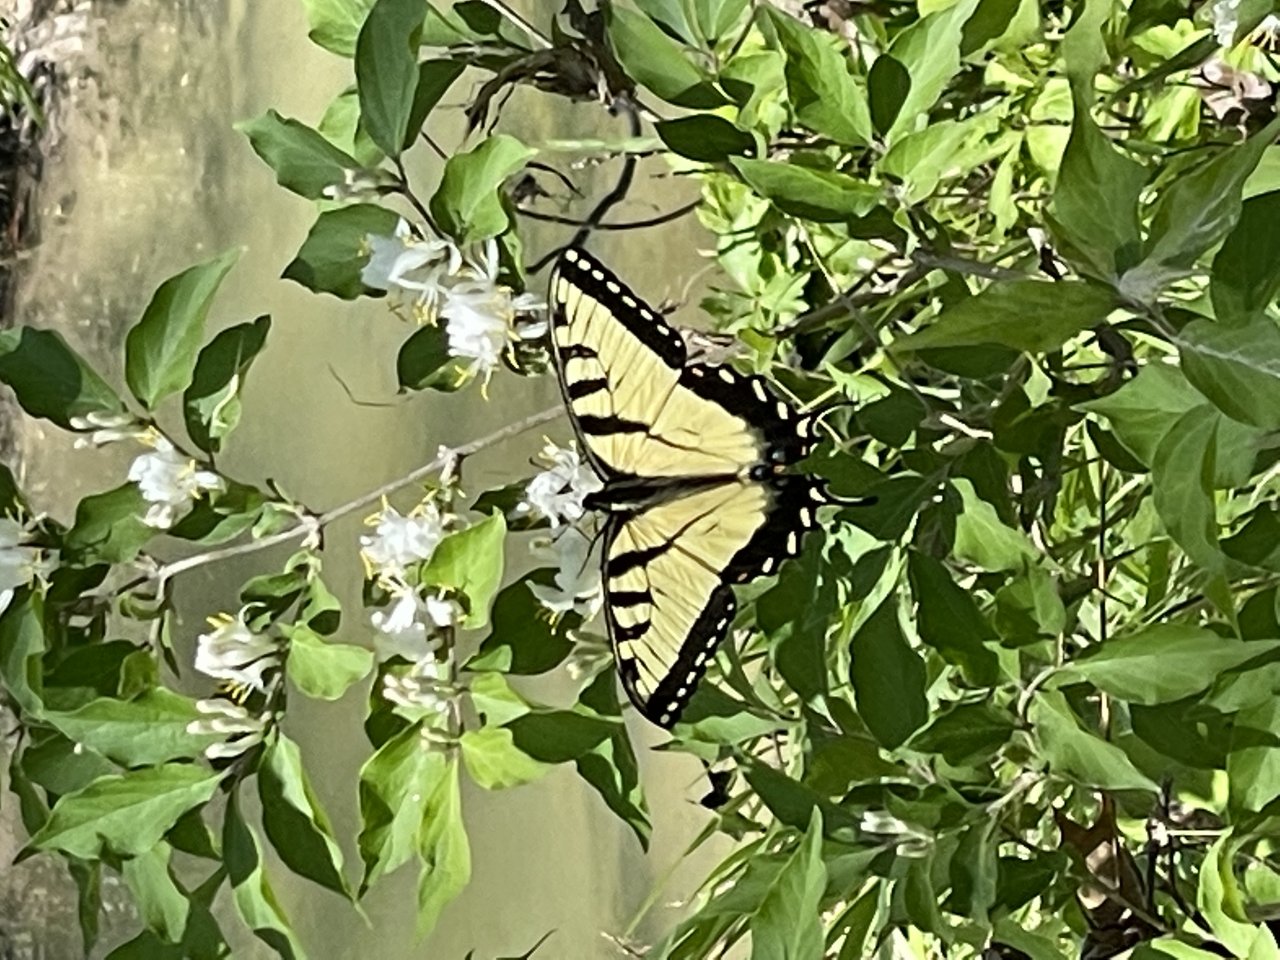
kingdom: Animalia
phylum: Arthropoda
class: Insecta
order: Lepidoptera
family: Papilionidae
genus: Pterourus
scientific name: Pterourus glaucus
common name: Eastern Tiger Swallowtail
